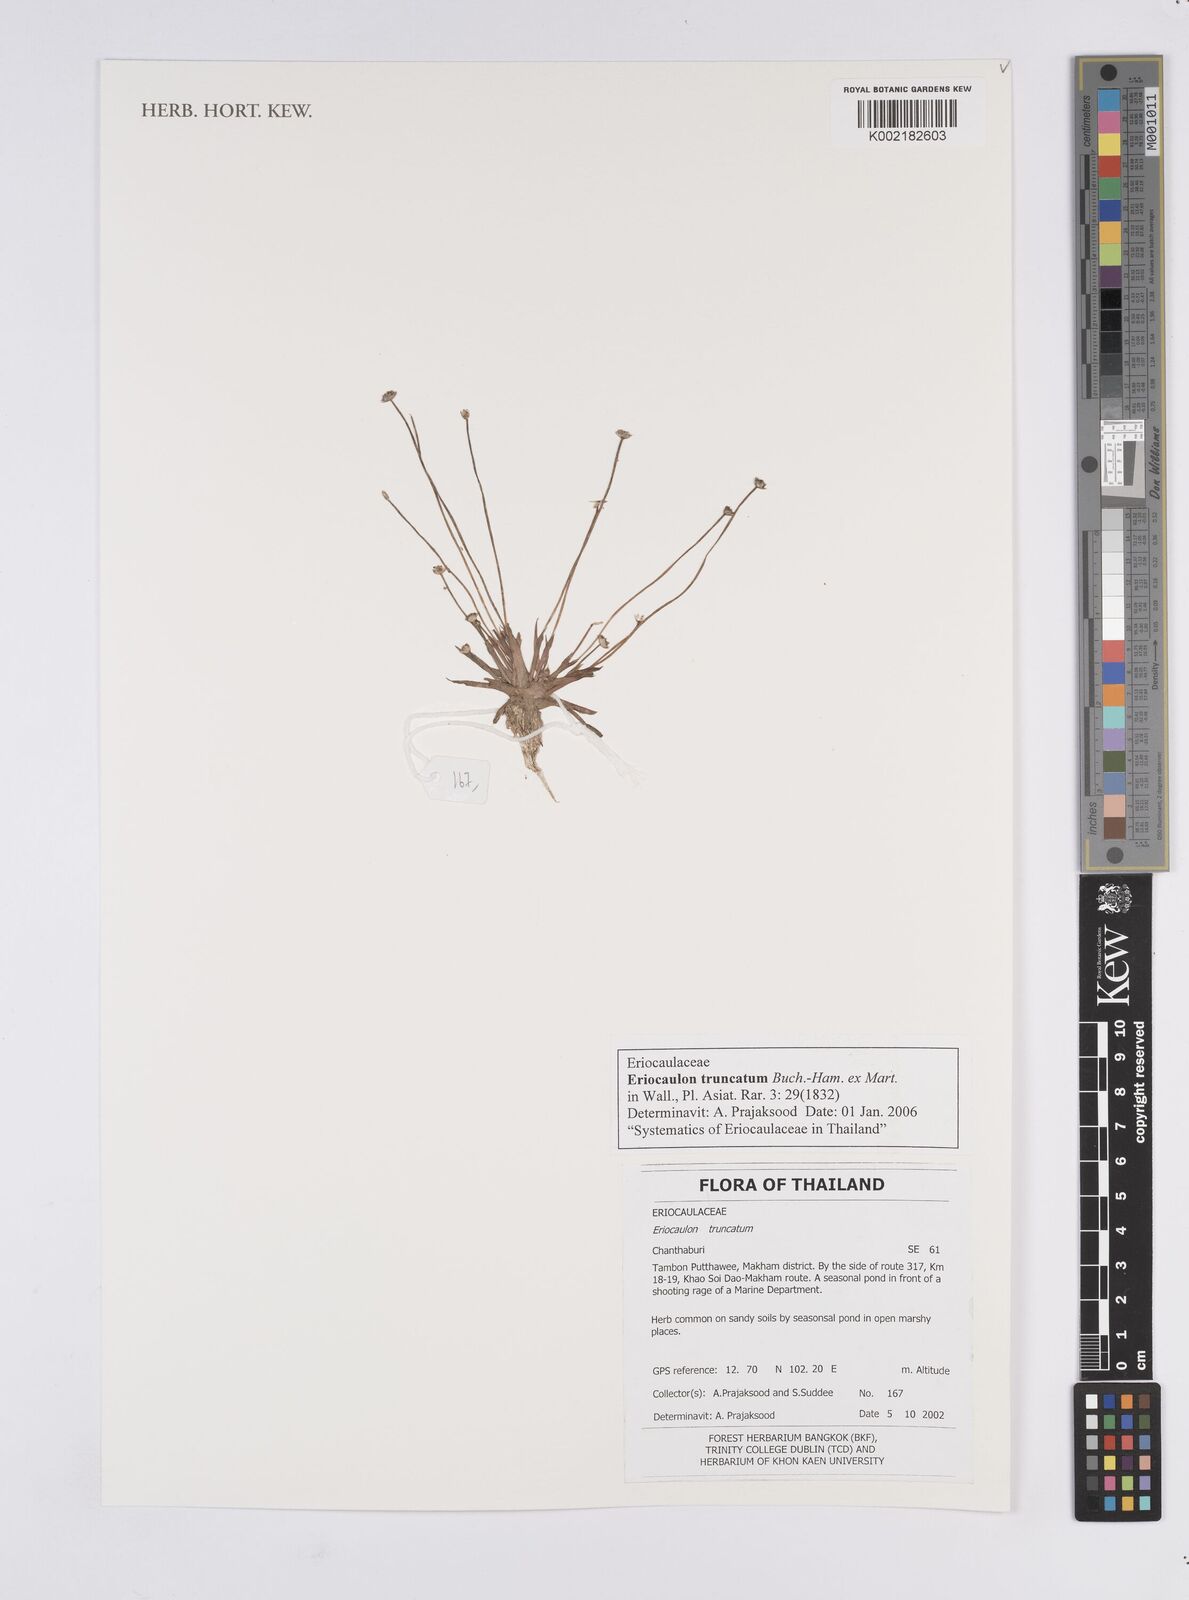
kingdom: Plantae
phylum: Tracheophyta
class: Liliopsida
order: Poales
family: Eriocaulaceae
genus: Eriocaulon
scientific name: Eriocaulon truncatum
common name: Short pipe-wort
